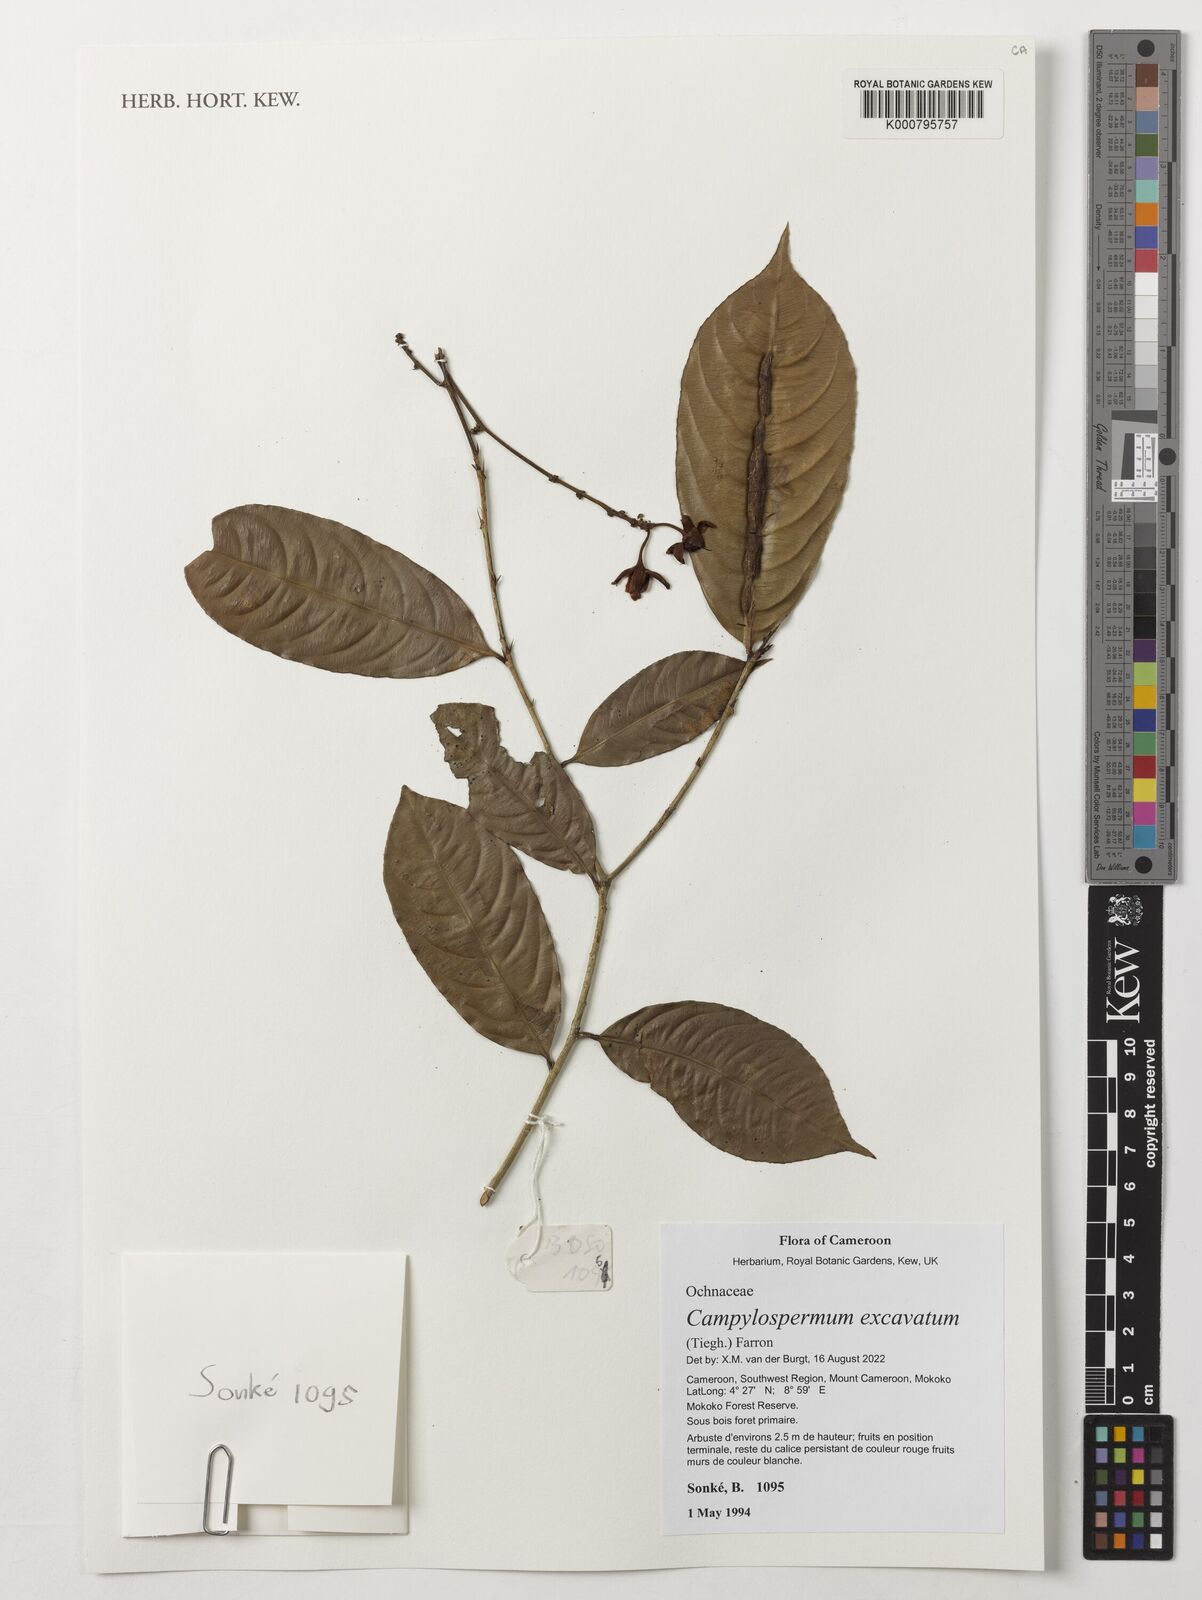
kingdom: Plantae
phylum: Tracheophyta
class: Magnoliopsida
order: Malpighiales
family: Ochnaceae
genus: Campylospermum
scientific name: Campylospermum excavatum
